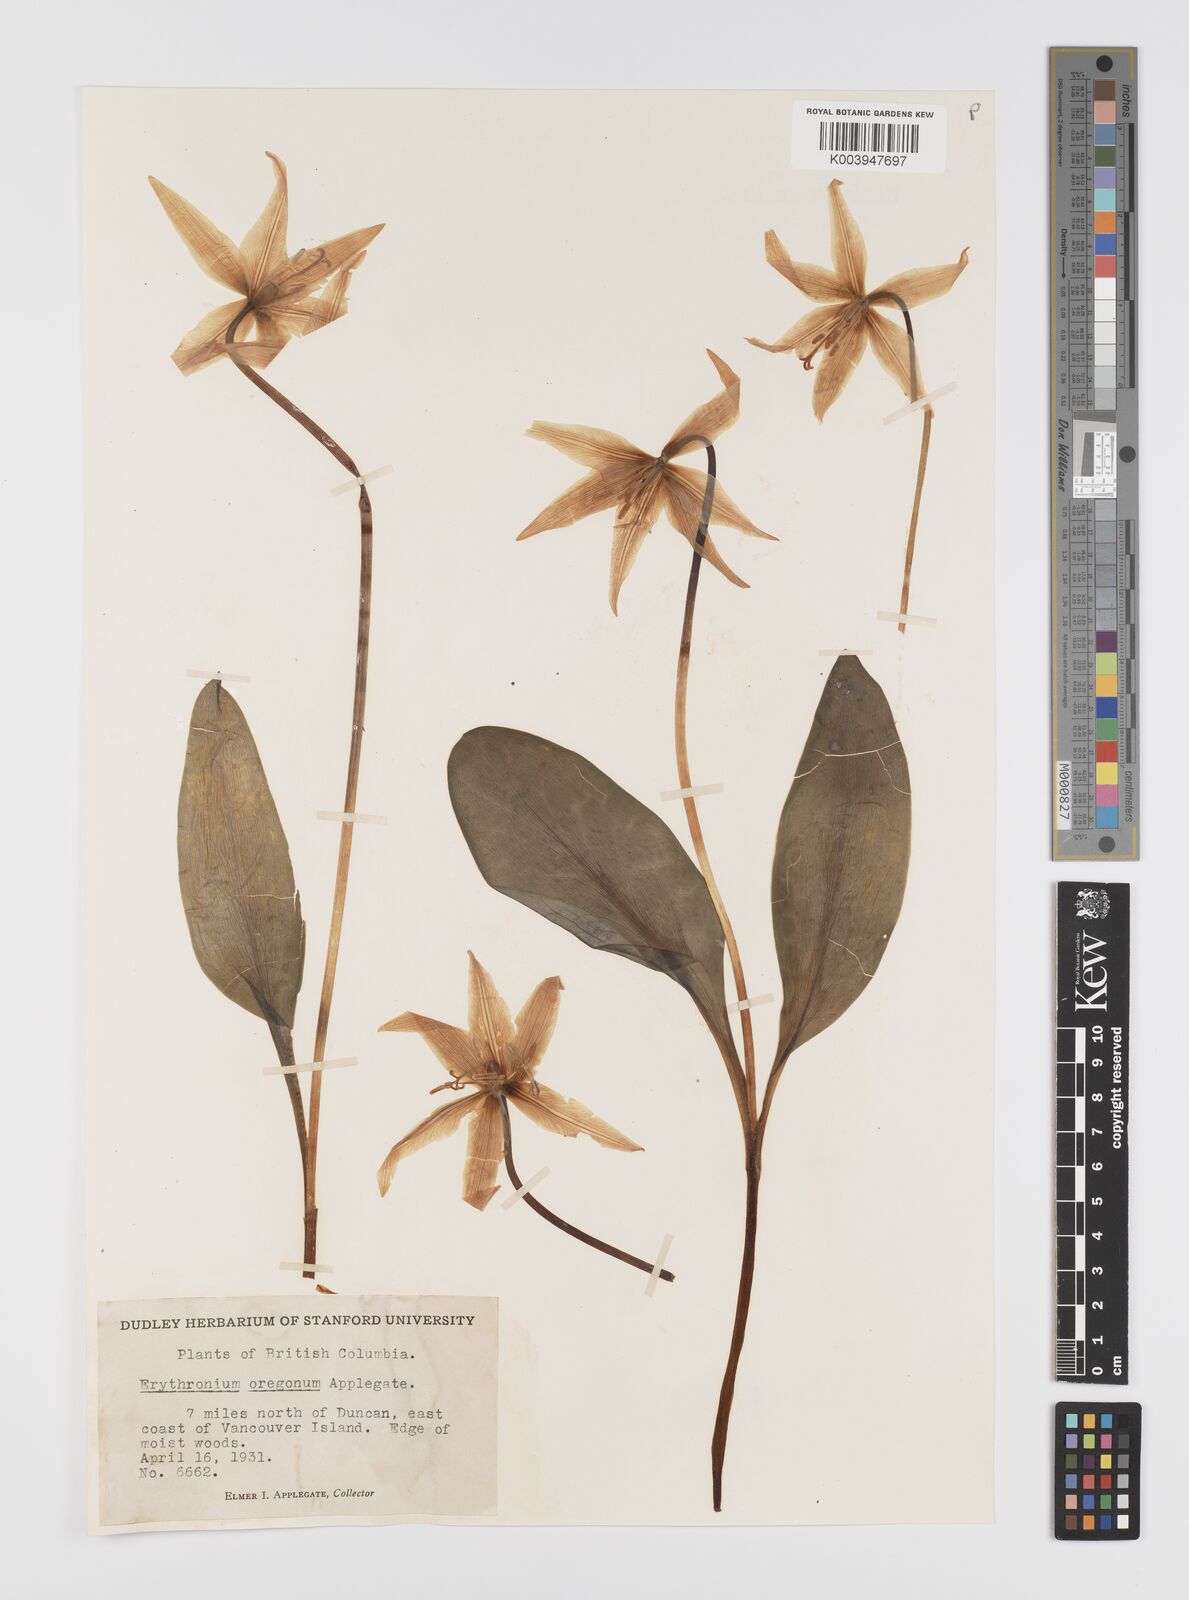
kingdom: Plantae
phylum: Tracheophyta
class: Liliopsida
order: Liliales
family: Liliaceae
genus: Erythronium
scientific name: Erythronium oregonum
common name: Giant adder's-tongue
